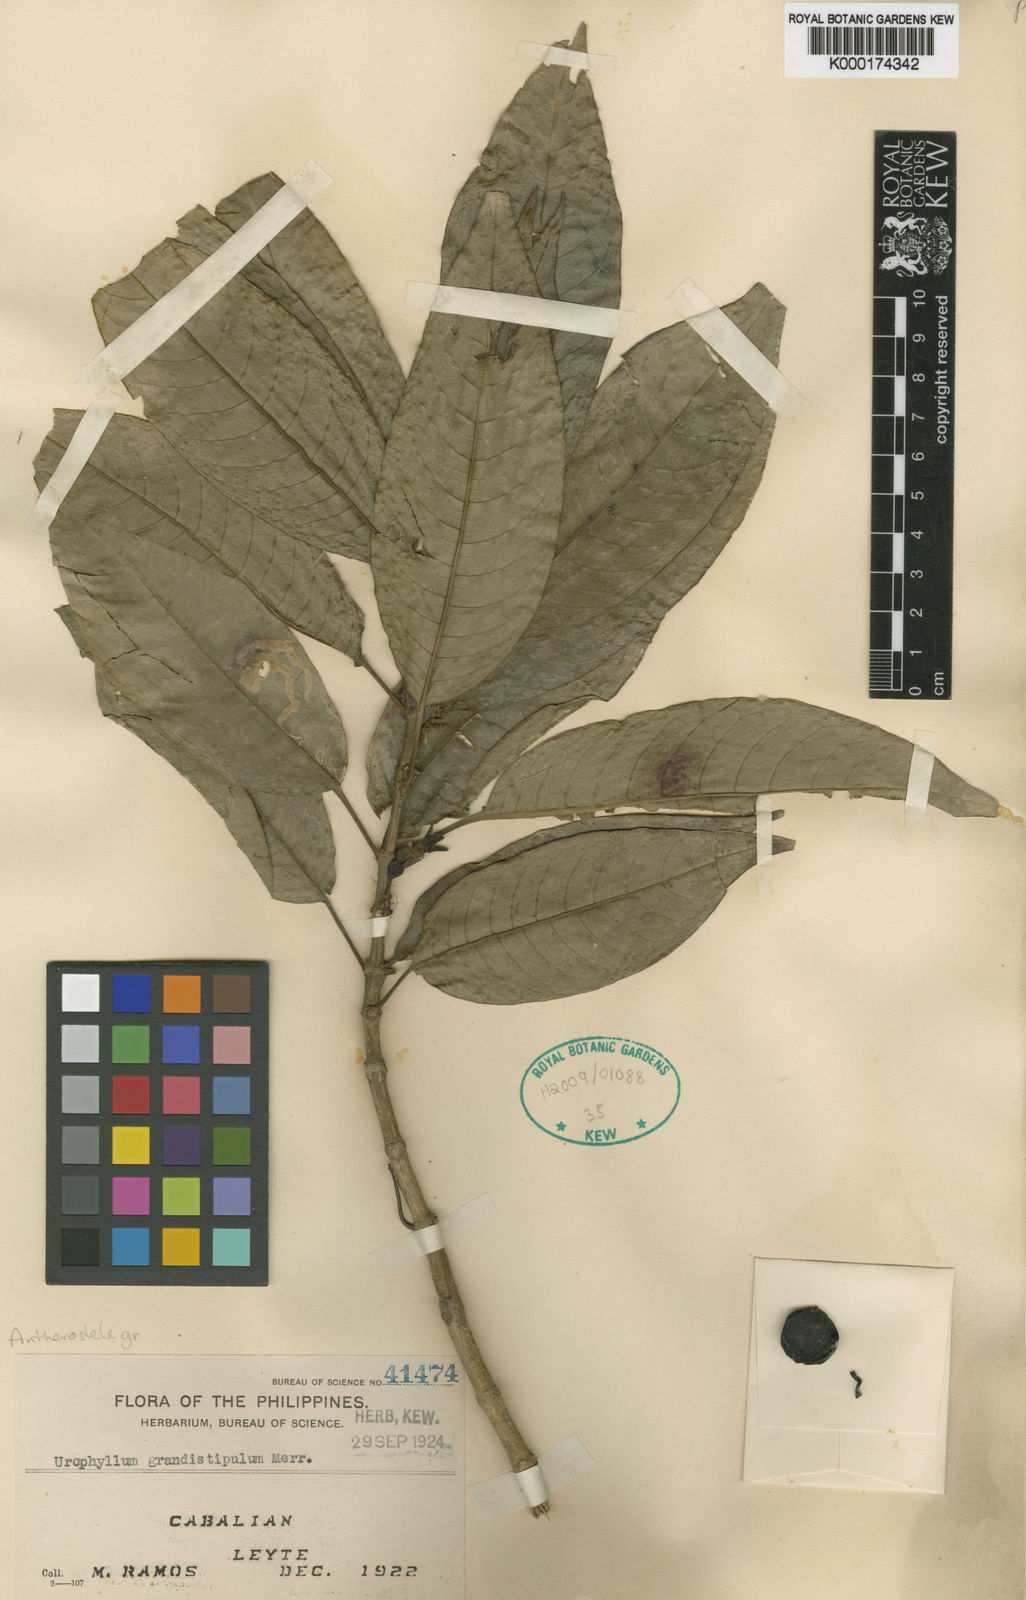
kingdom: Plantae
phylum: Tracheophyta
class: Magnoliopsida
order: Gentianales
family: Rubiaceae
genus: Antherostele
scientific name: Antherostele grandistipula
